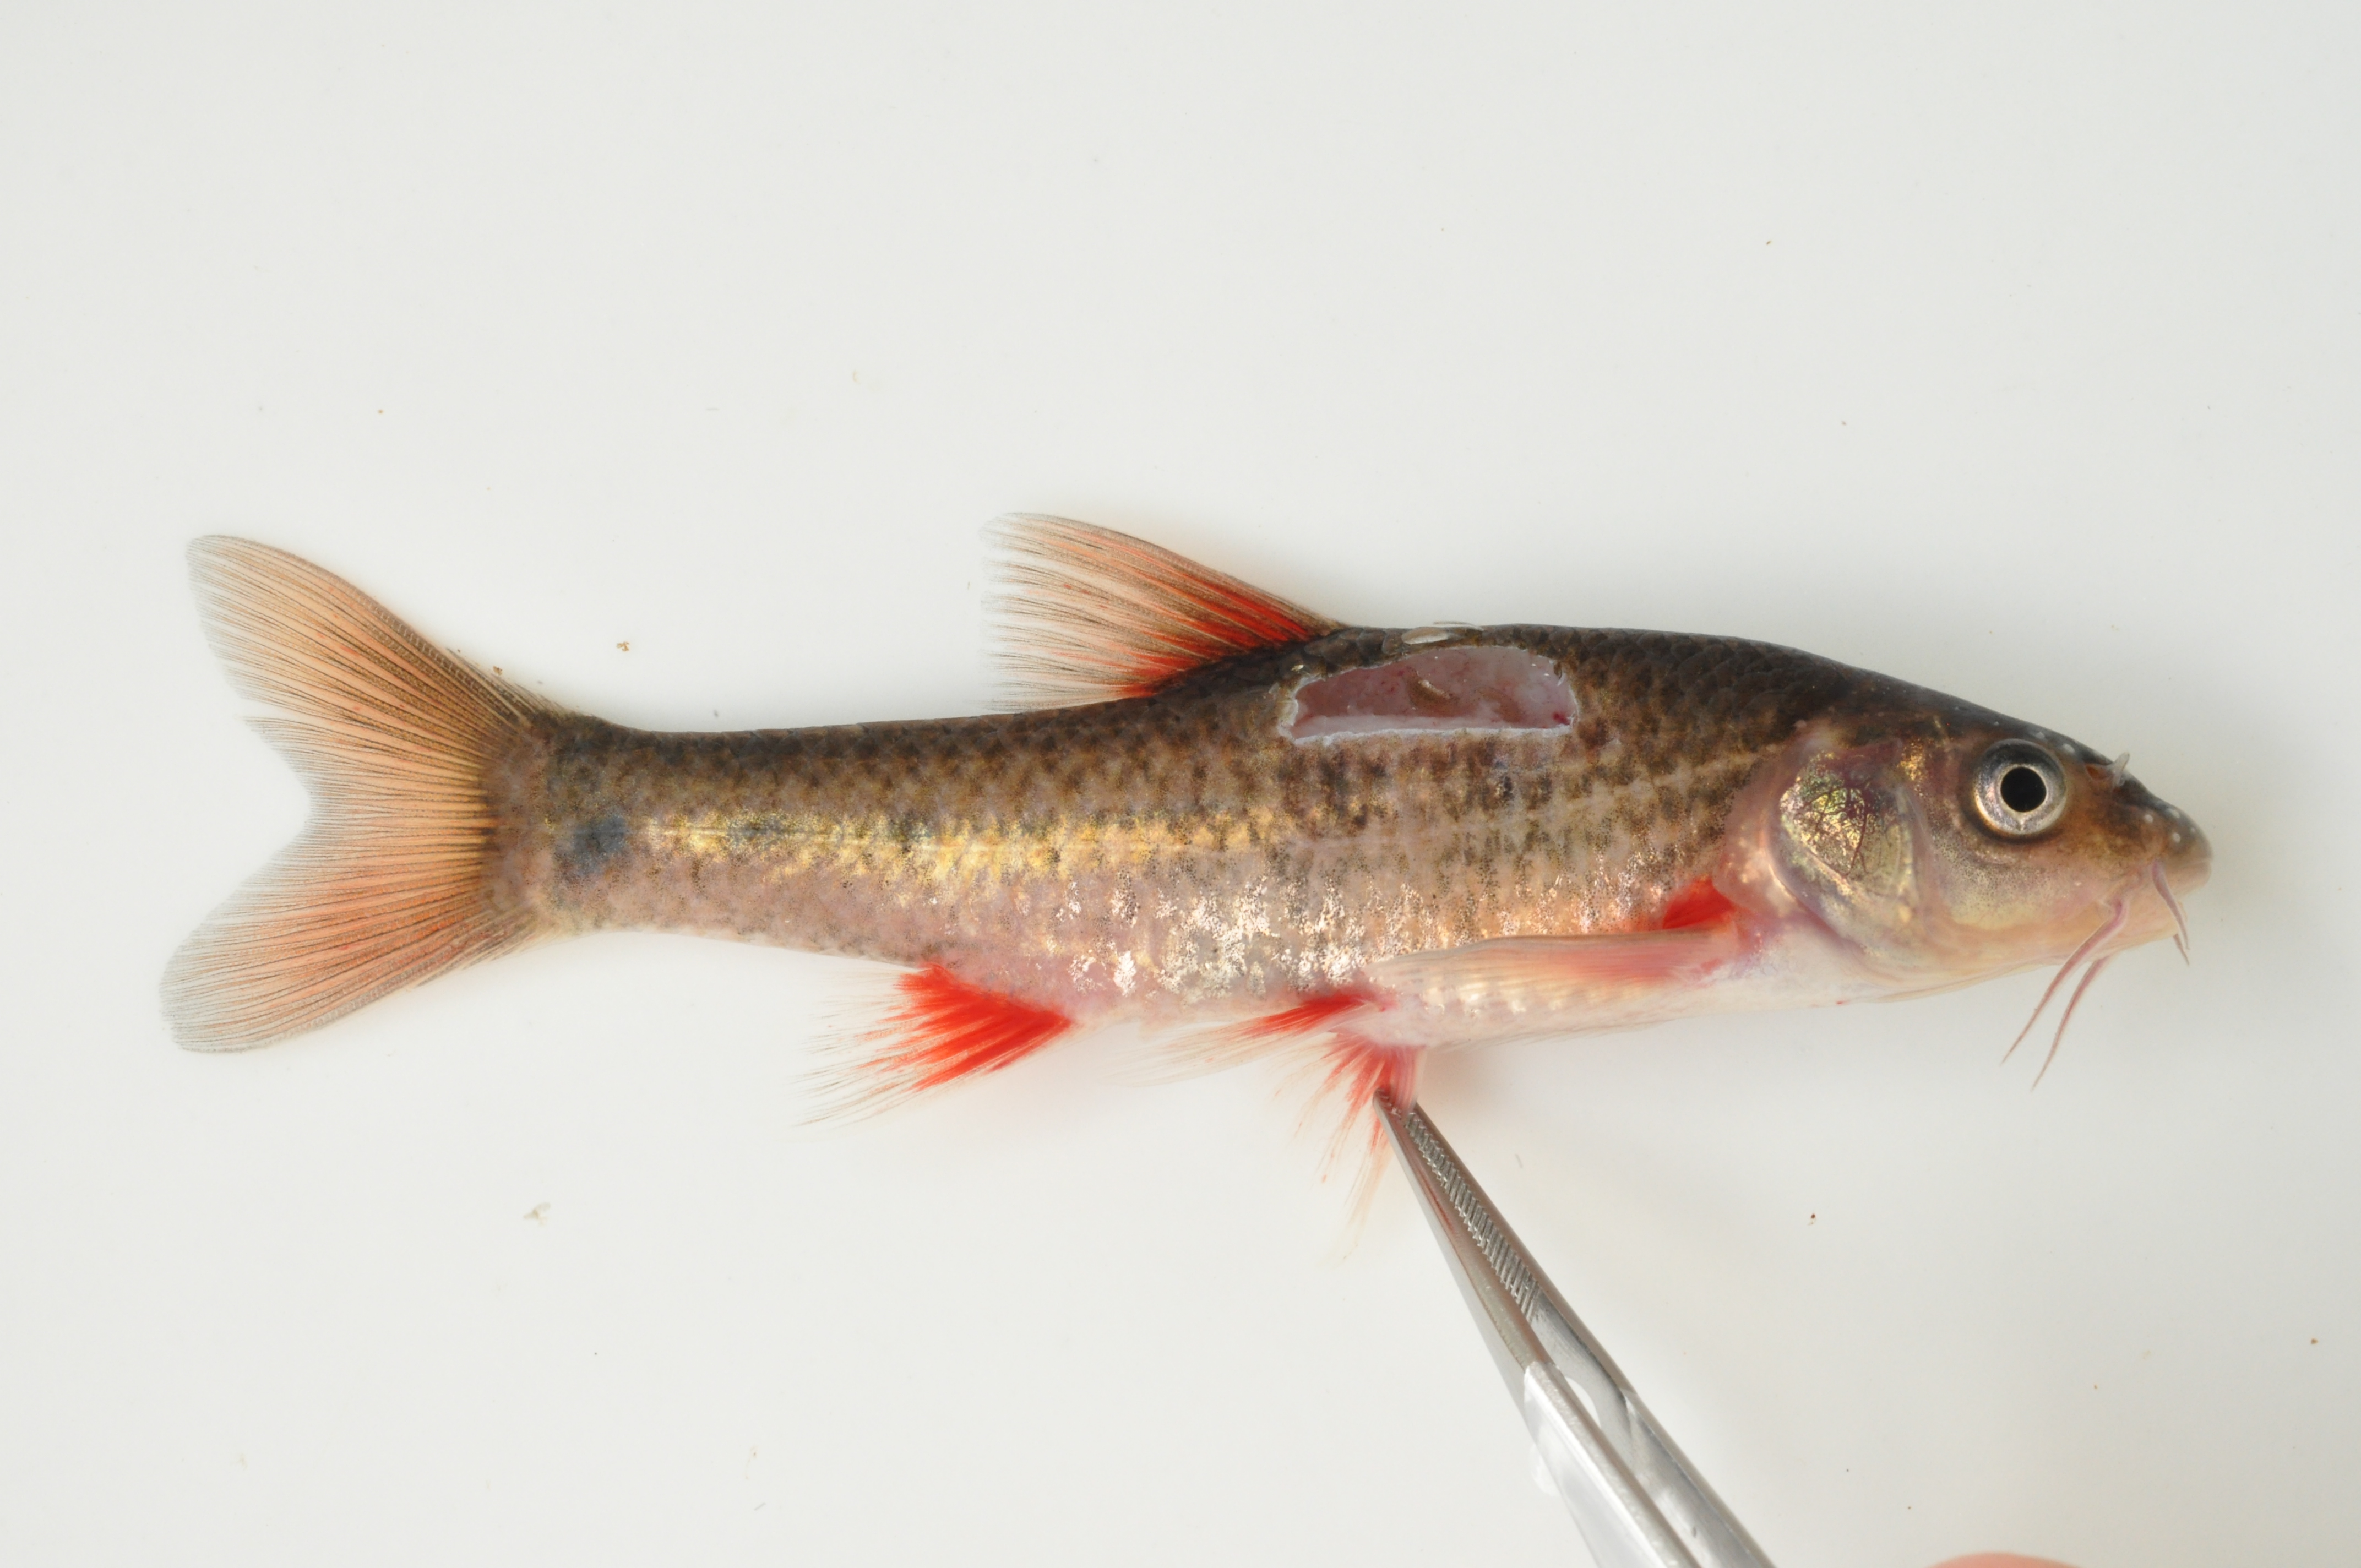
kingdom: Animalia
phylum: Chordata
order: Cypriniformes
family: Cyprinidae
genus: Pseudobarbus
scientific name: Pseudobarbus burchelli
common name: Burchell's redfin
